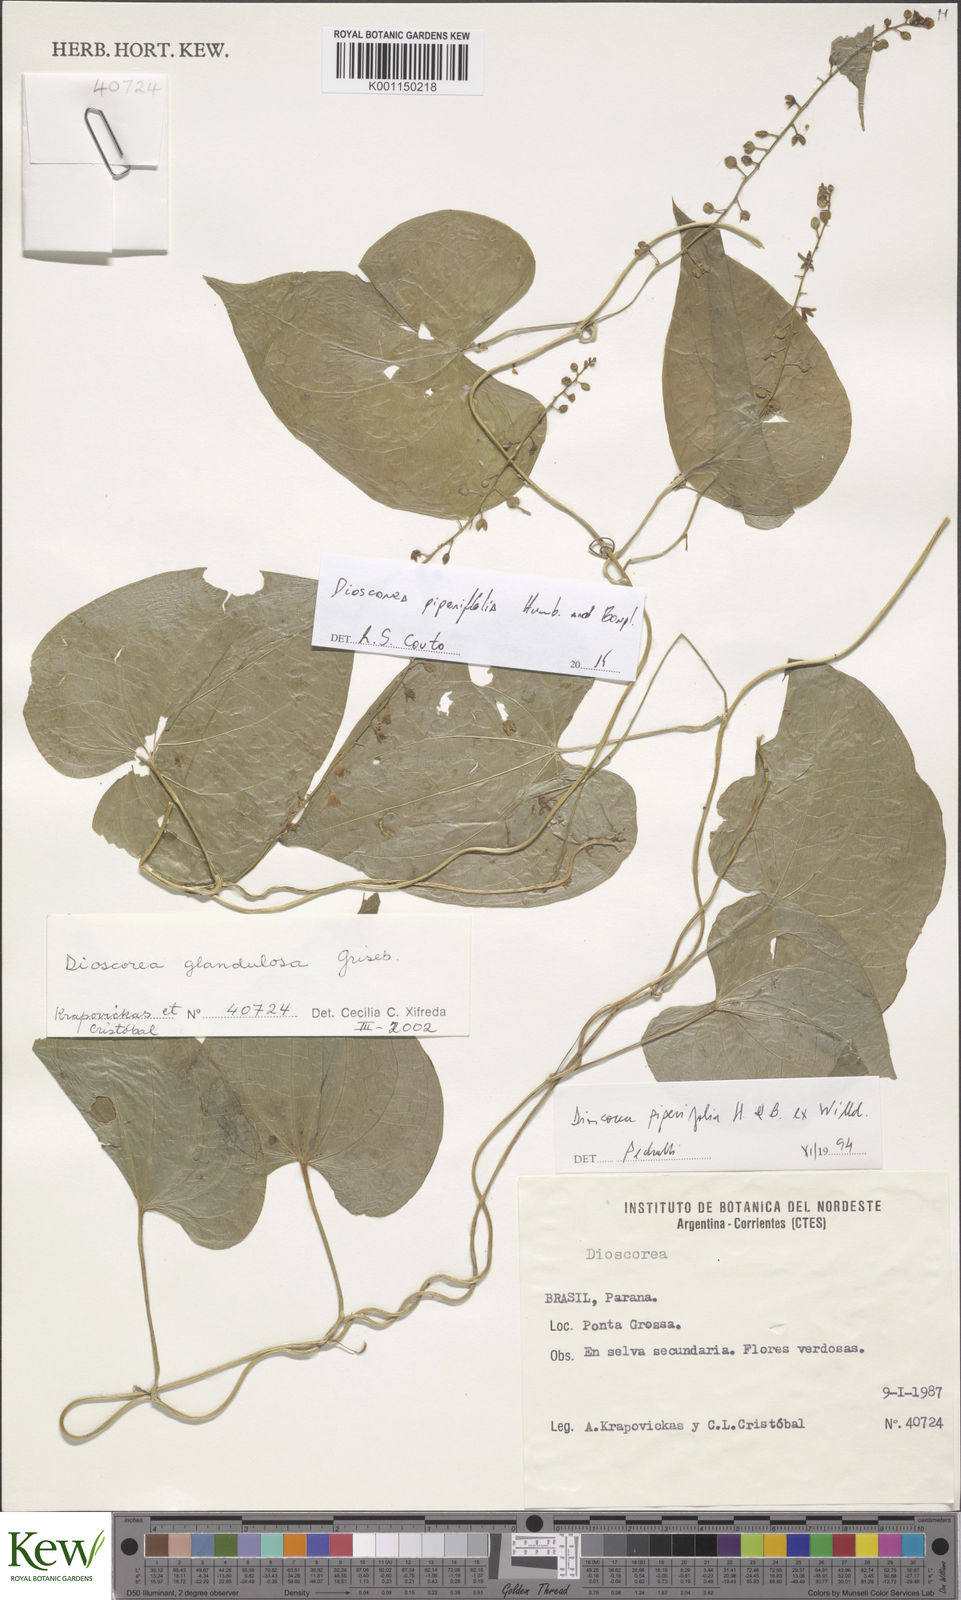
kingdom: Plantae
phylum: Tracheophyta
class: Liliopsida
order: Dioscoreales
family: Dioscoreaceae
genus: Dioscorea
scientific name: Dioscorea glandulosa
